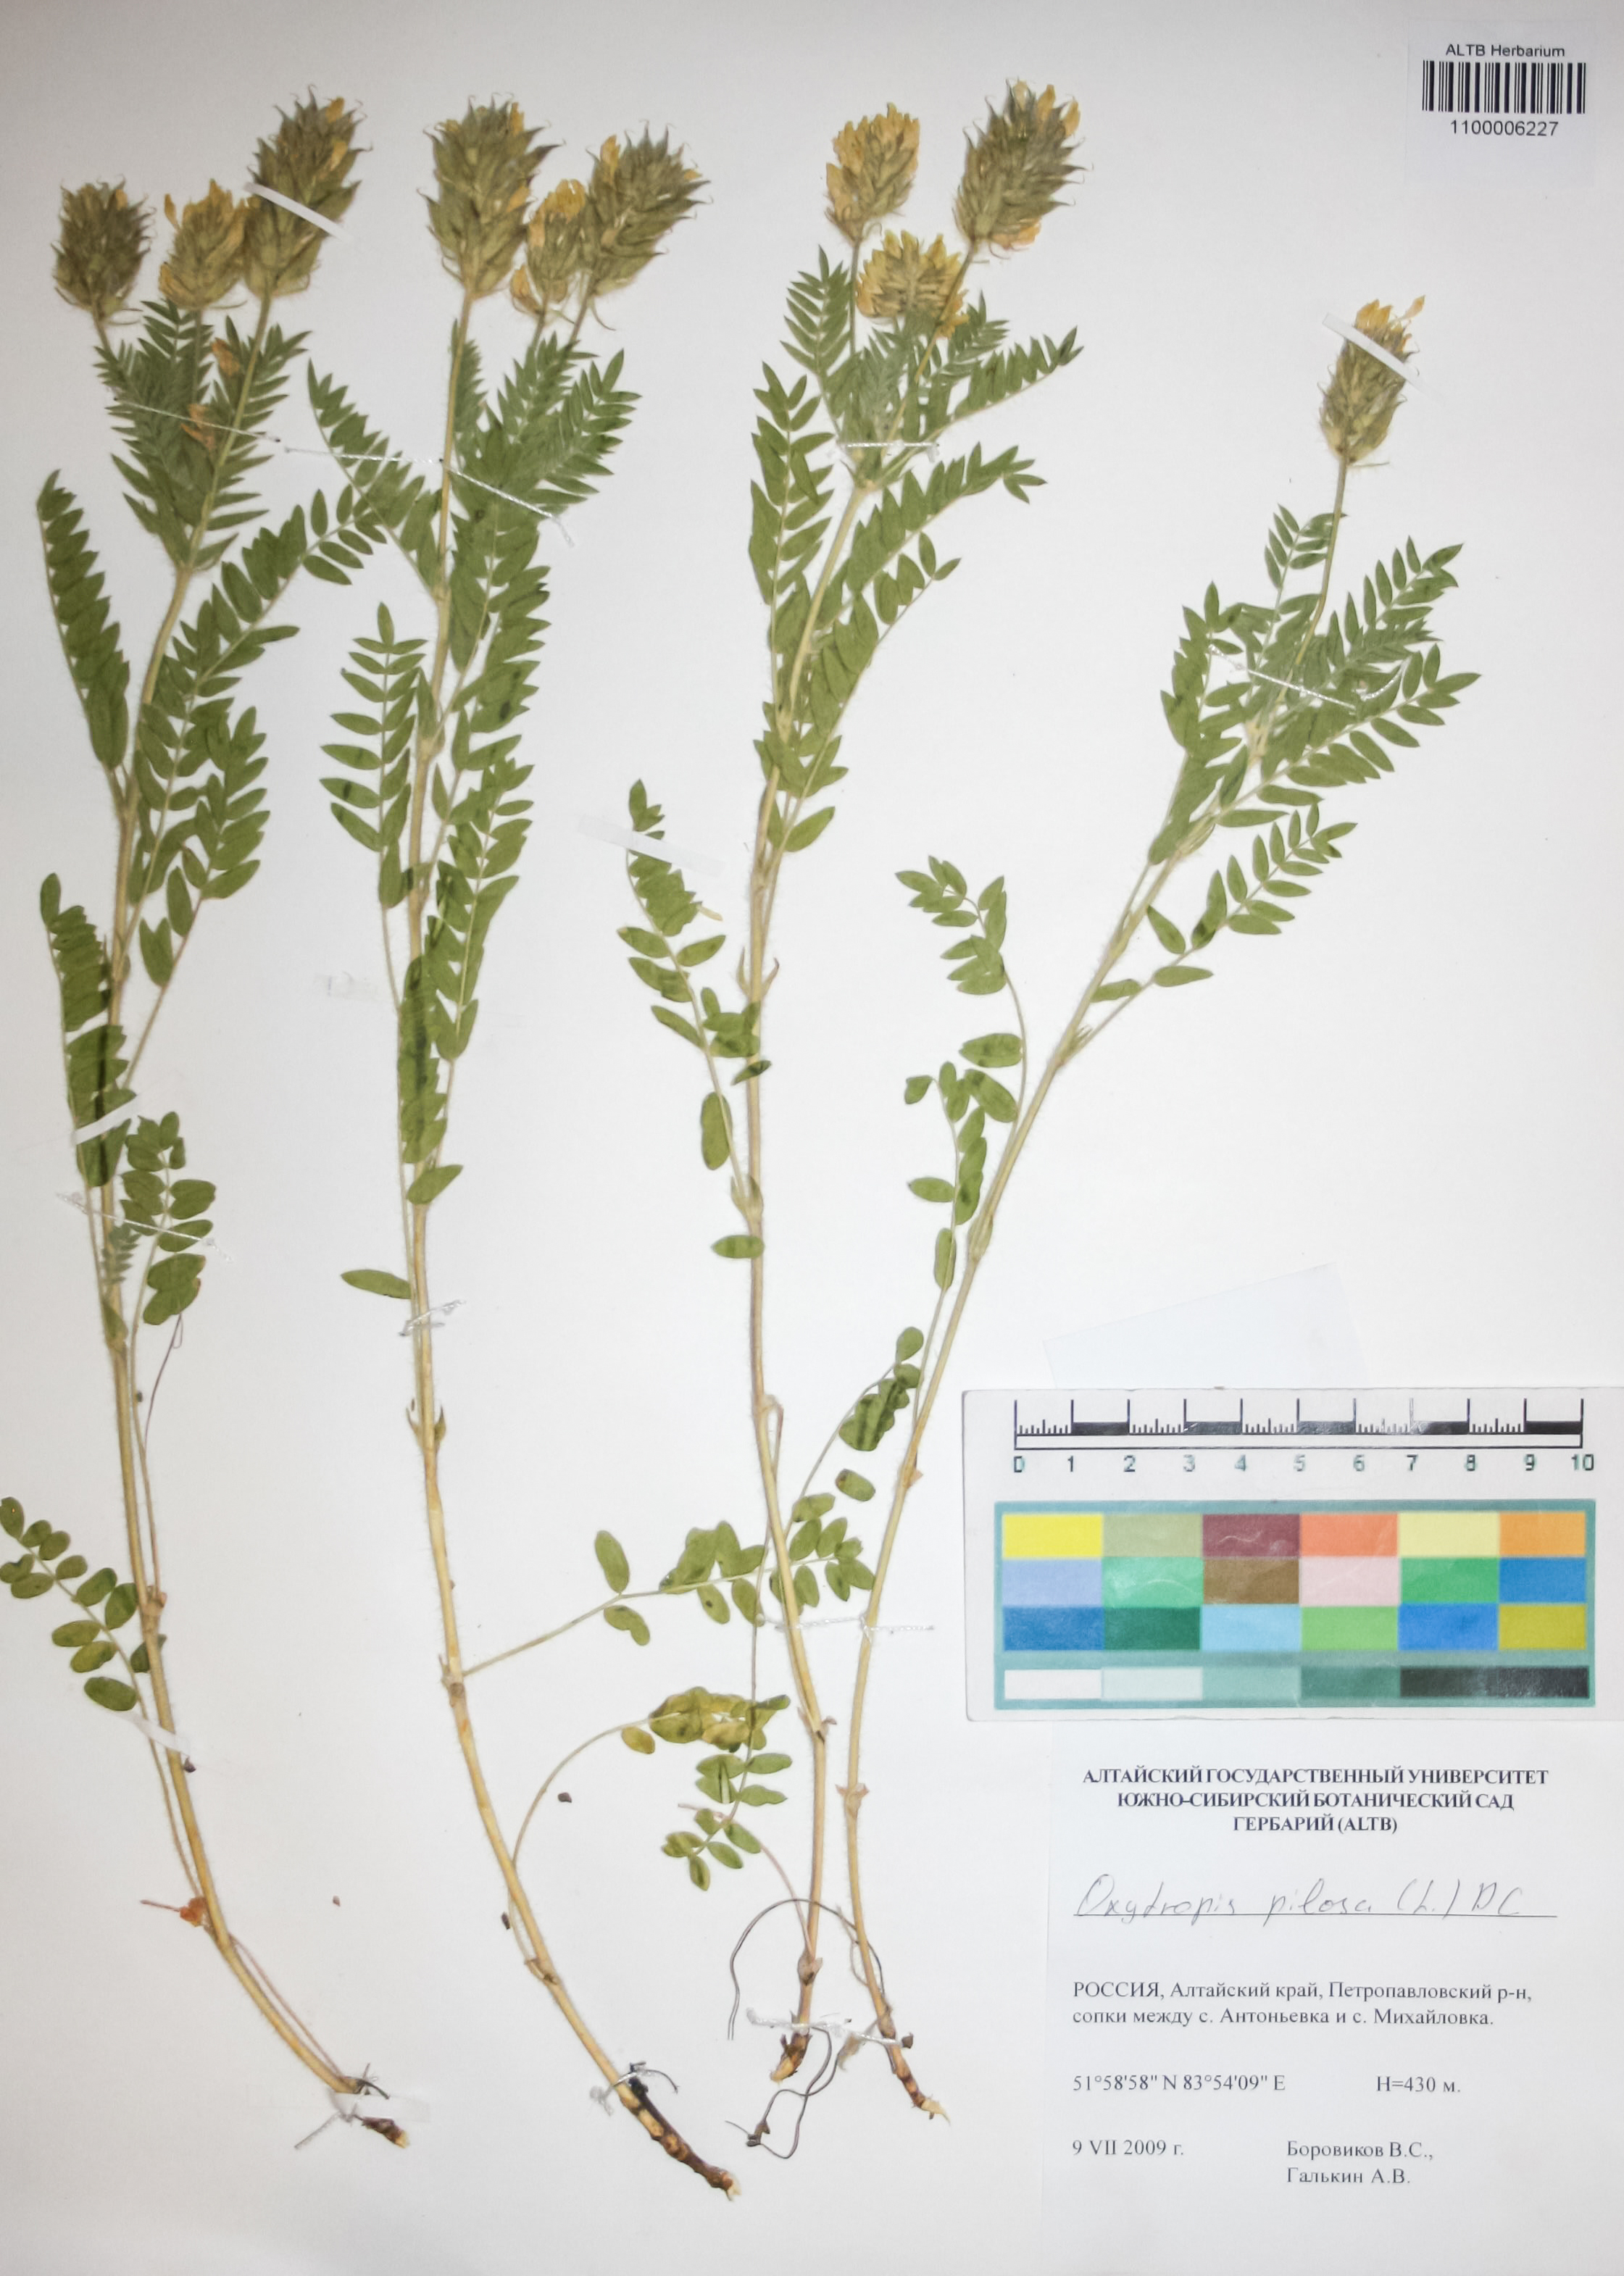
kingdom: Plantae
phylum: Tracheophyta
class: Magnoliopsida
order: Fabales
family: Fabaceae
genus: Oxytropis
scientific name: Oxytropis pilosa
